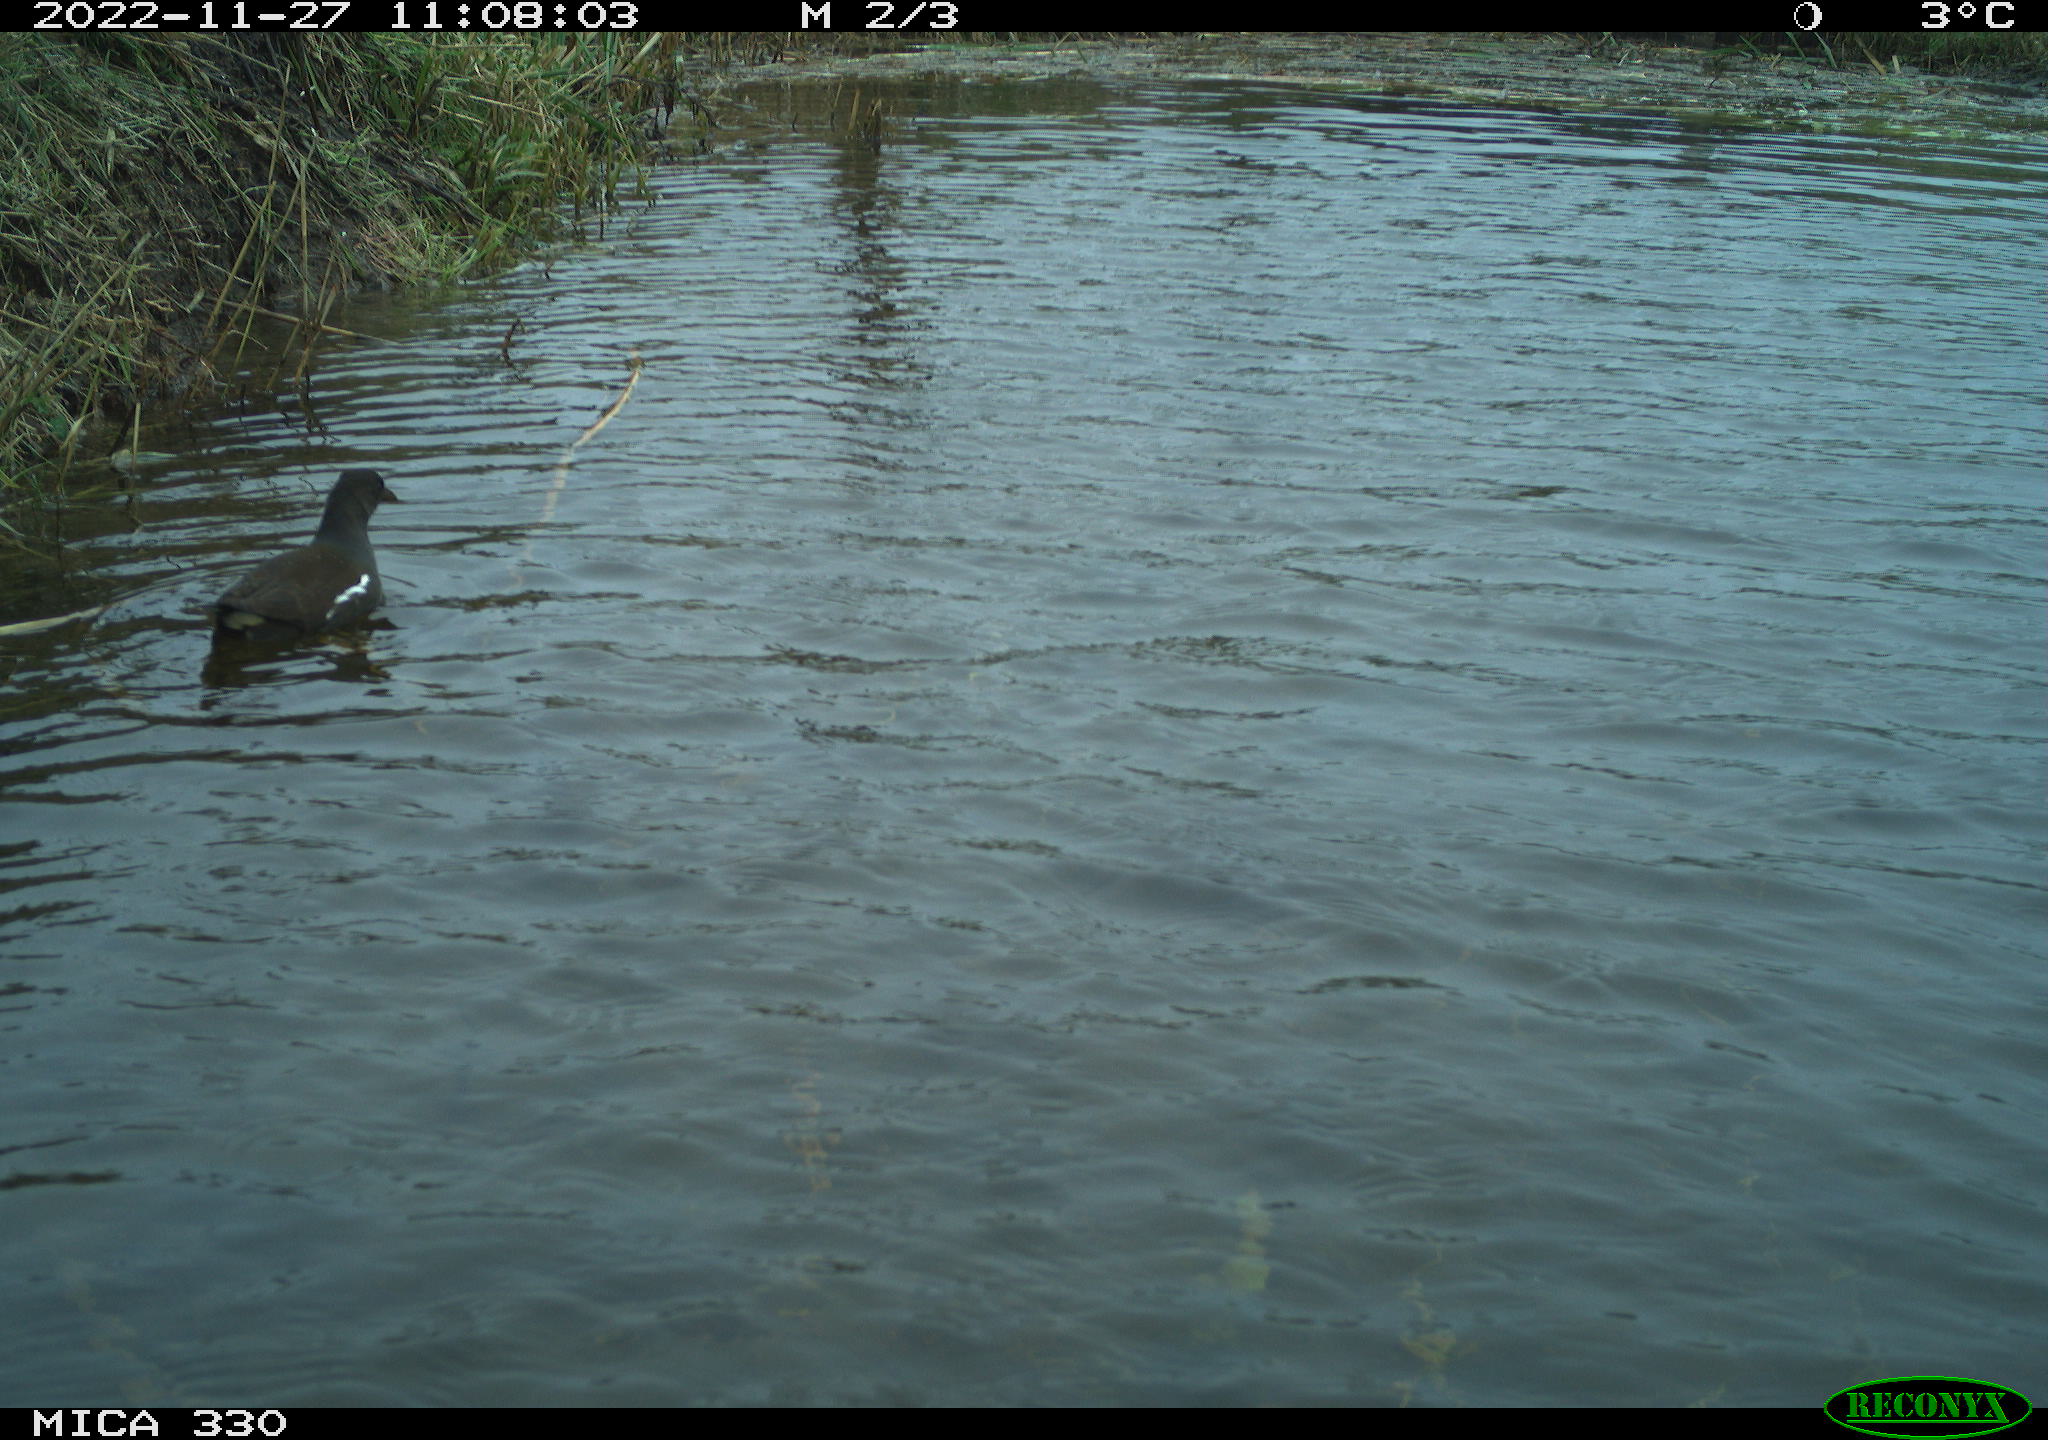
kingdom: Animalia
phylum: Chordata
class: Aves
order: Gruiformes
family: Rallidae
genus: Gallinula
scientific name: Gallinula chloropus
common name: Common moorhen
